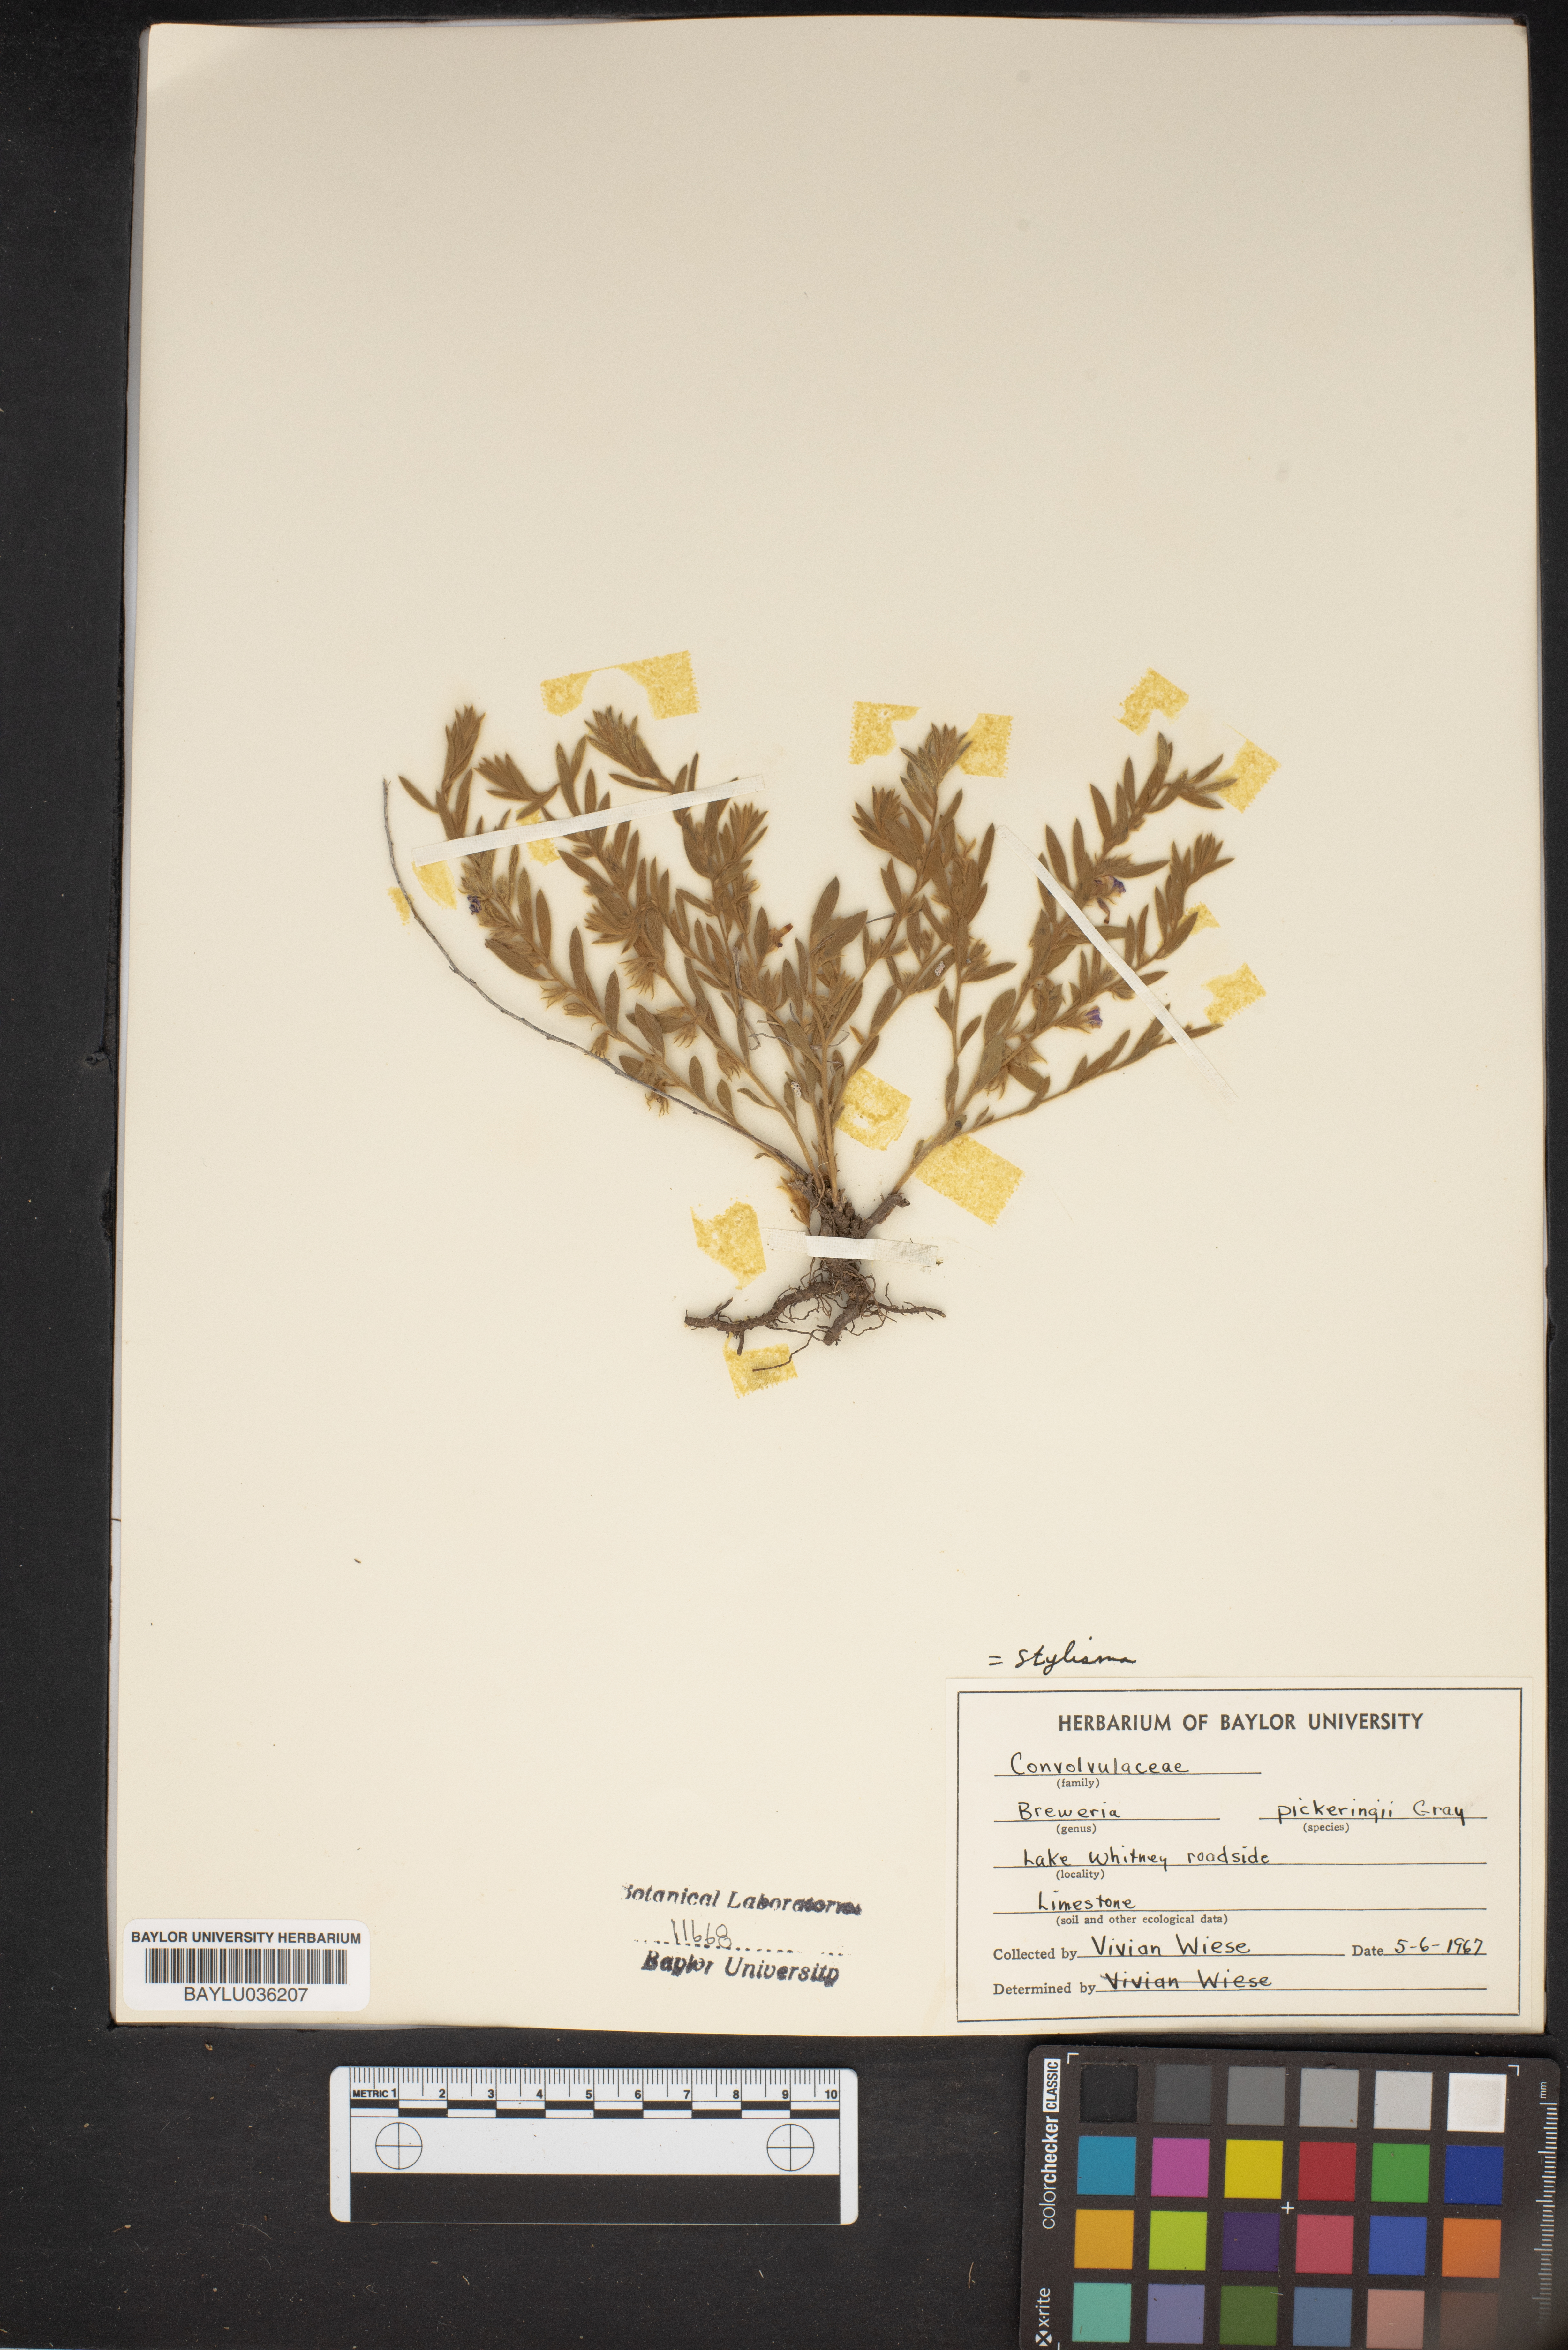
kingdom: Plantae
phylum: Tracheophyta
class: Magnoliopsida
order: Solanales
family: Convolvulaceae
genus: Stylisma
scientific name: Stylisma pickeringii
